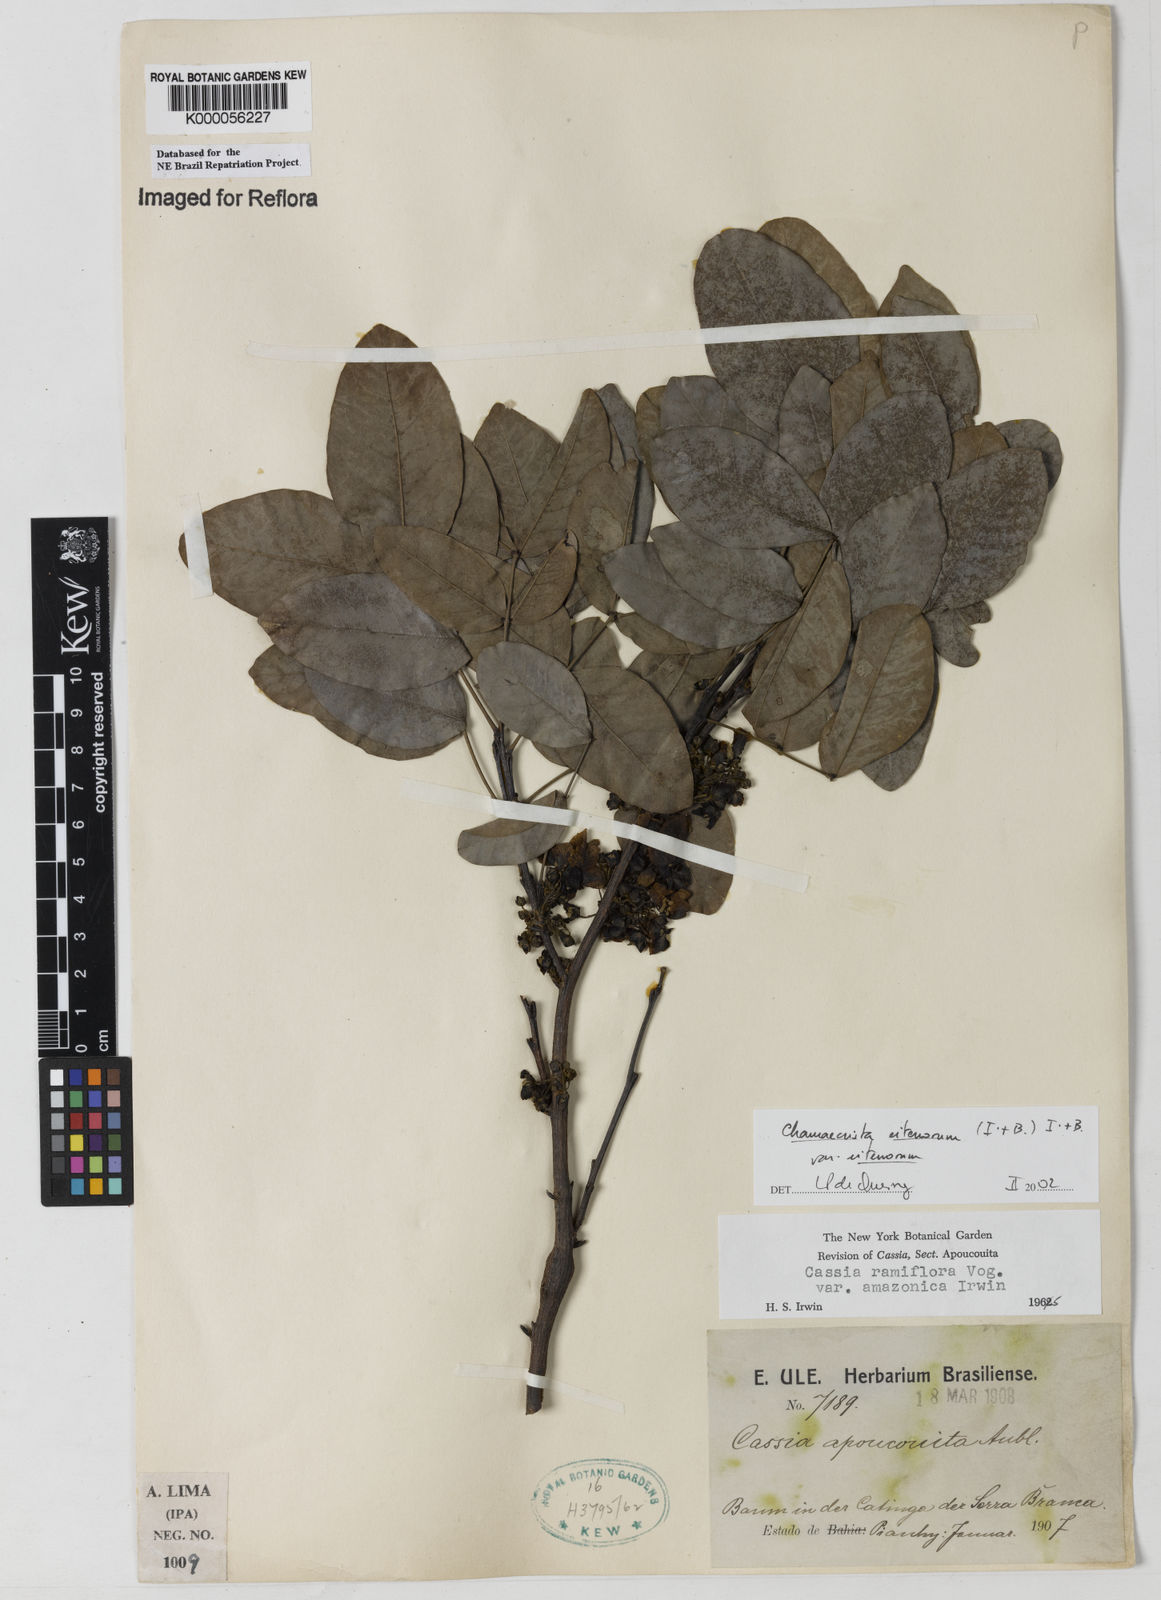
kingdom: Plantae
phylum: Tracheophyta
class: Magnoliopsida
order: Fabales
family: Fabaceae
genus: Chamaecrista
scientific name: Chamaecrista eitenorum
